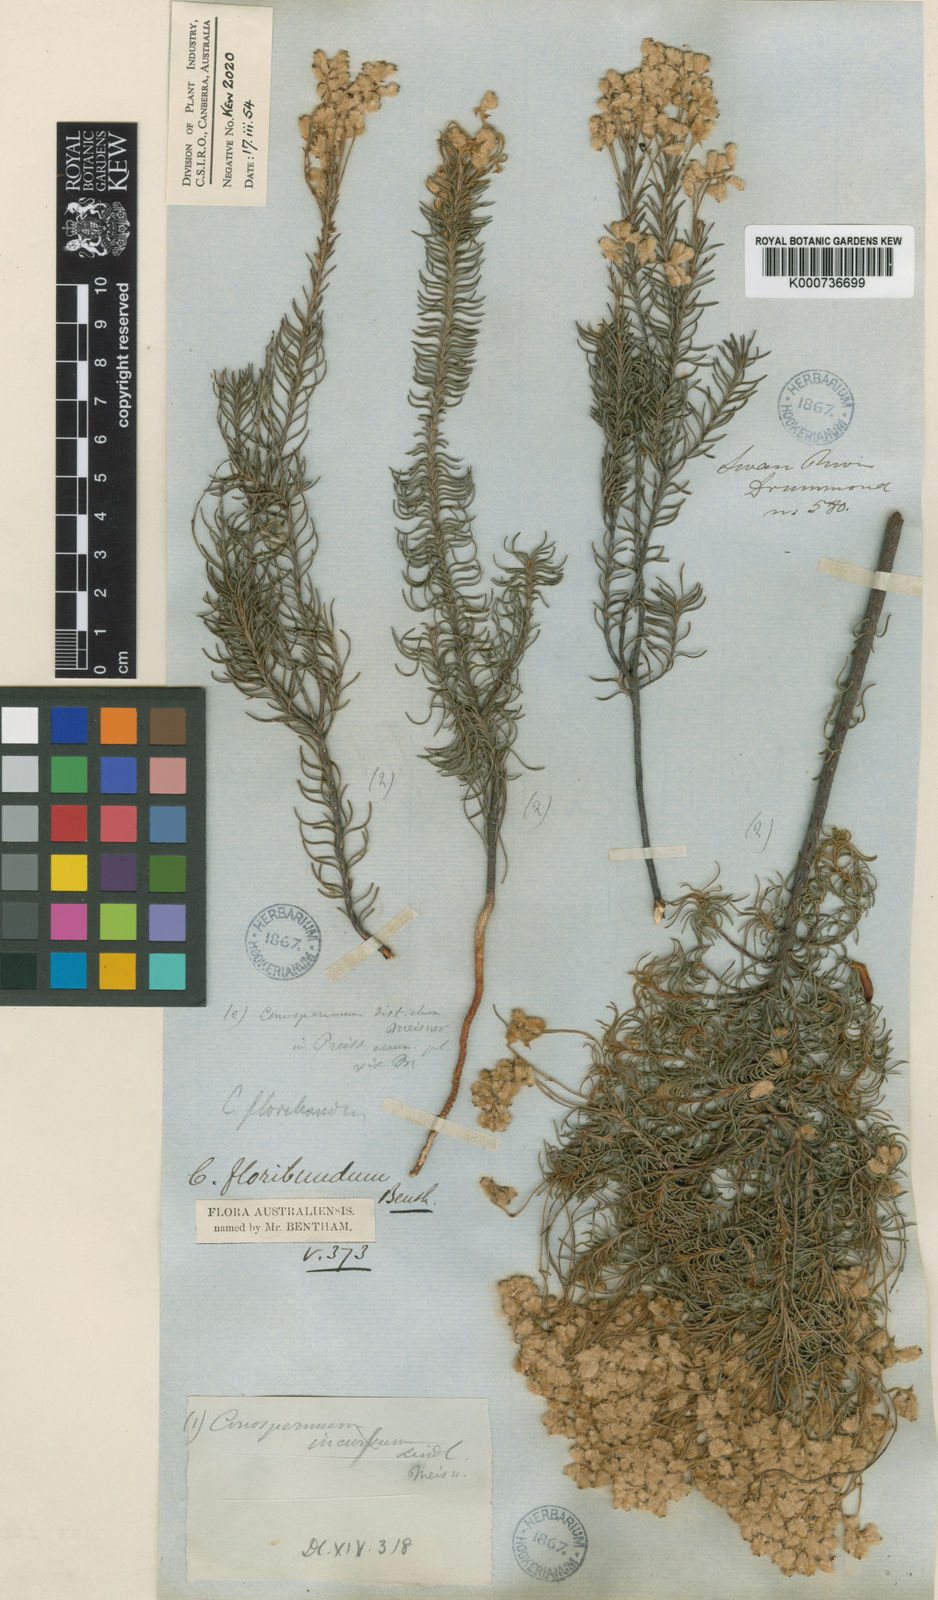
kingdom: Plantae
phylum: Tracheophyta
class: Magnoliopsida
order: Proteales
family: Proteaceae
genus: Conospermum
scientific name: Conospermum floribundum
